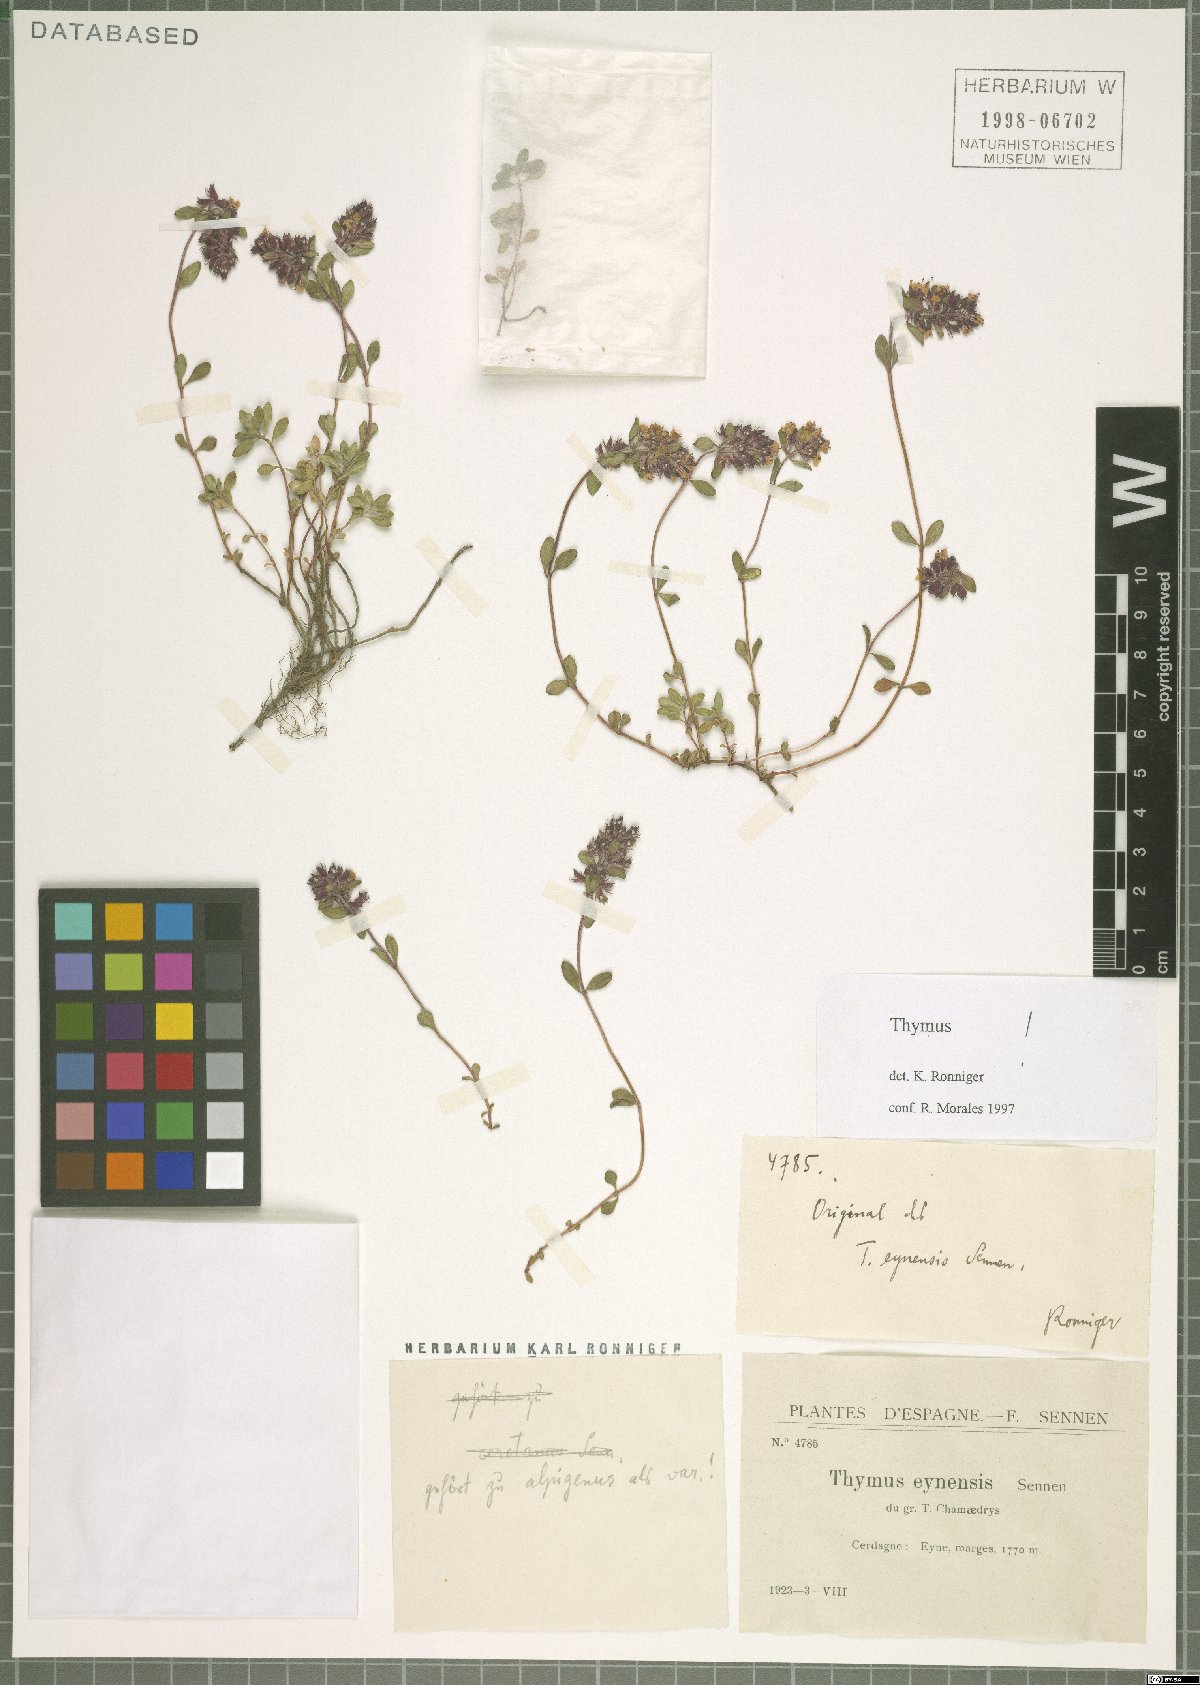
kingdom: Plantae
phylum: Tracheophyta
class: Magnoliopsida
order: Lamiales
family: Lamiaceae
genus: Thymus
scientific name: Thymus eynensis
